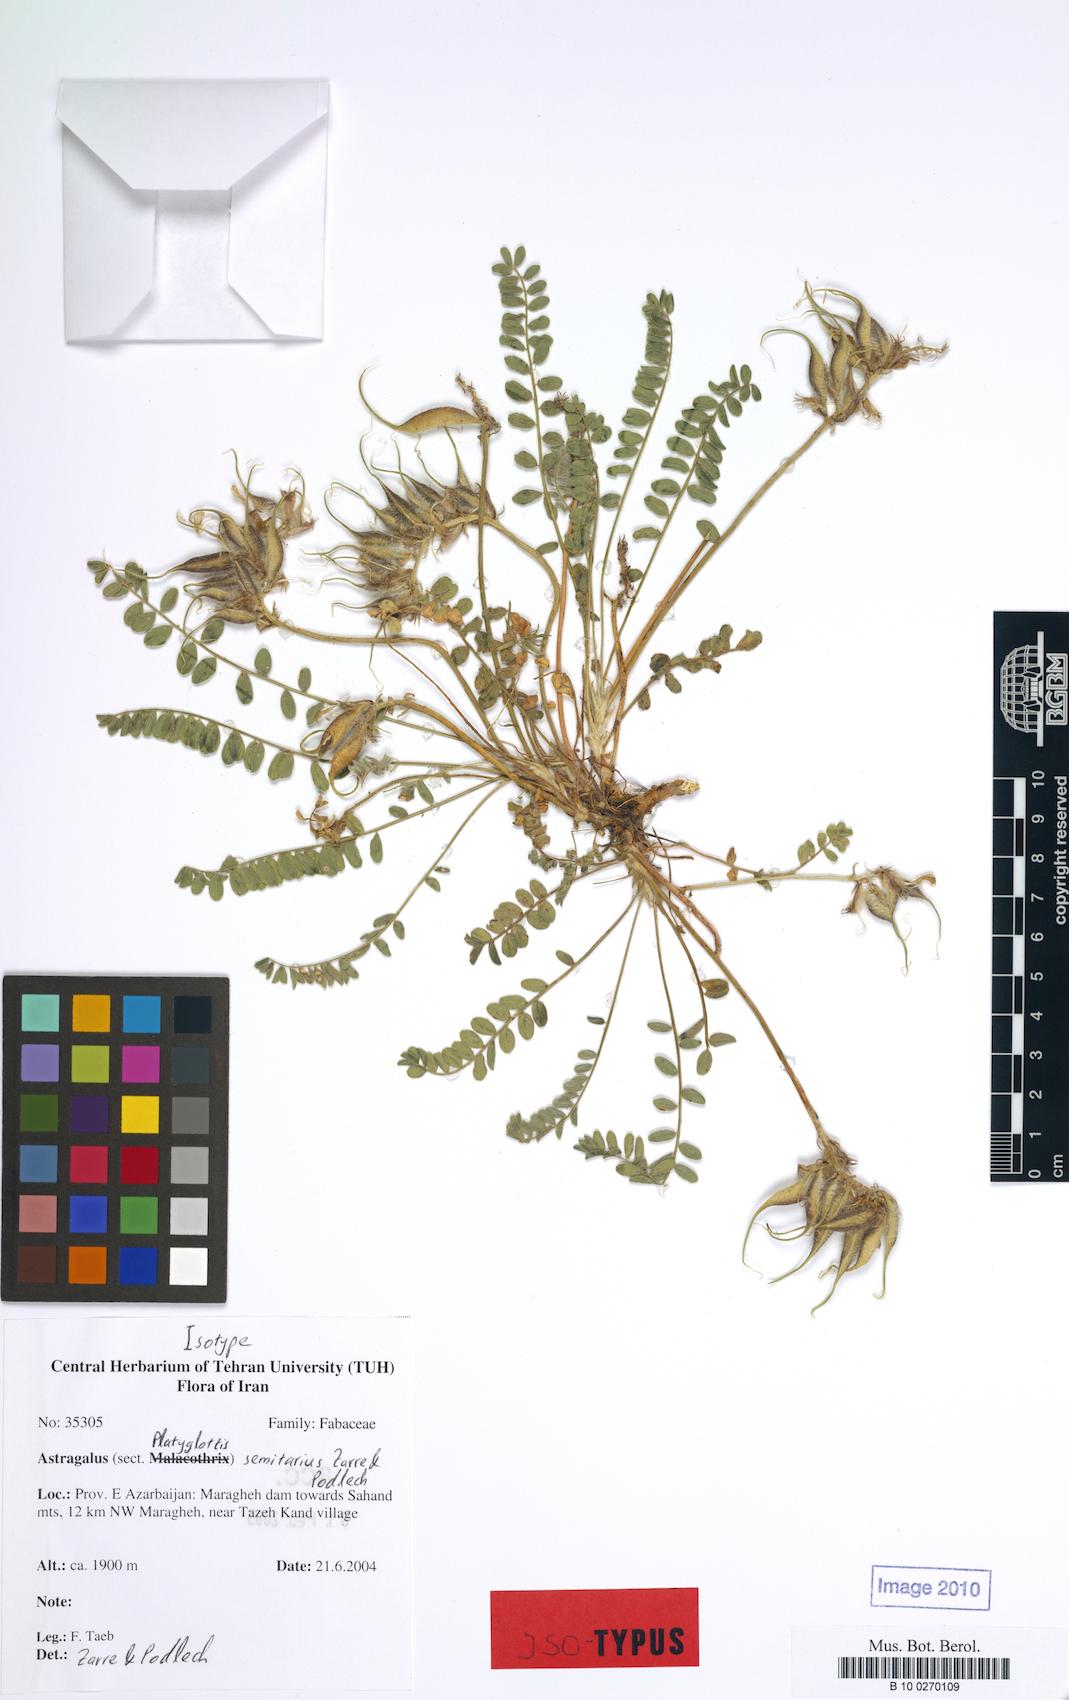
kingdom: Plantae
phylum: Tracheophyta
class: Magnoliopsida
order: Fabales
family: Fabaceae
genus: Astragalus
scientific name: Astragalus senilis
